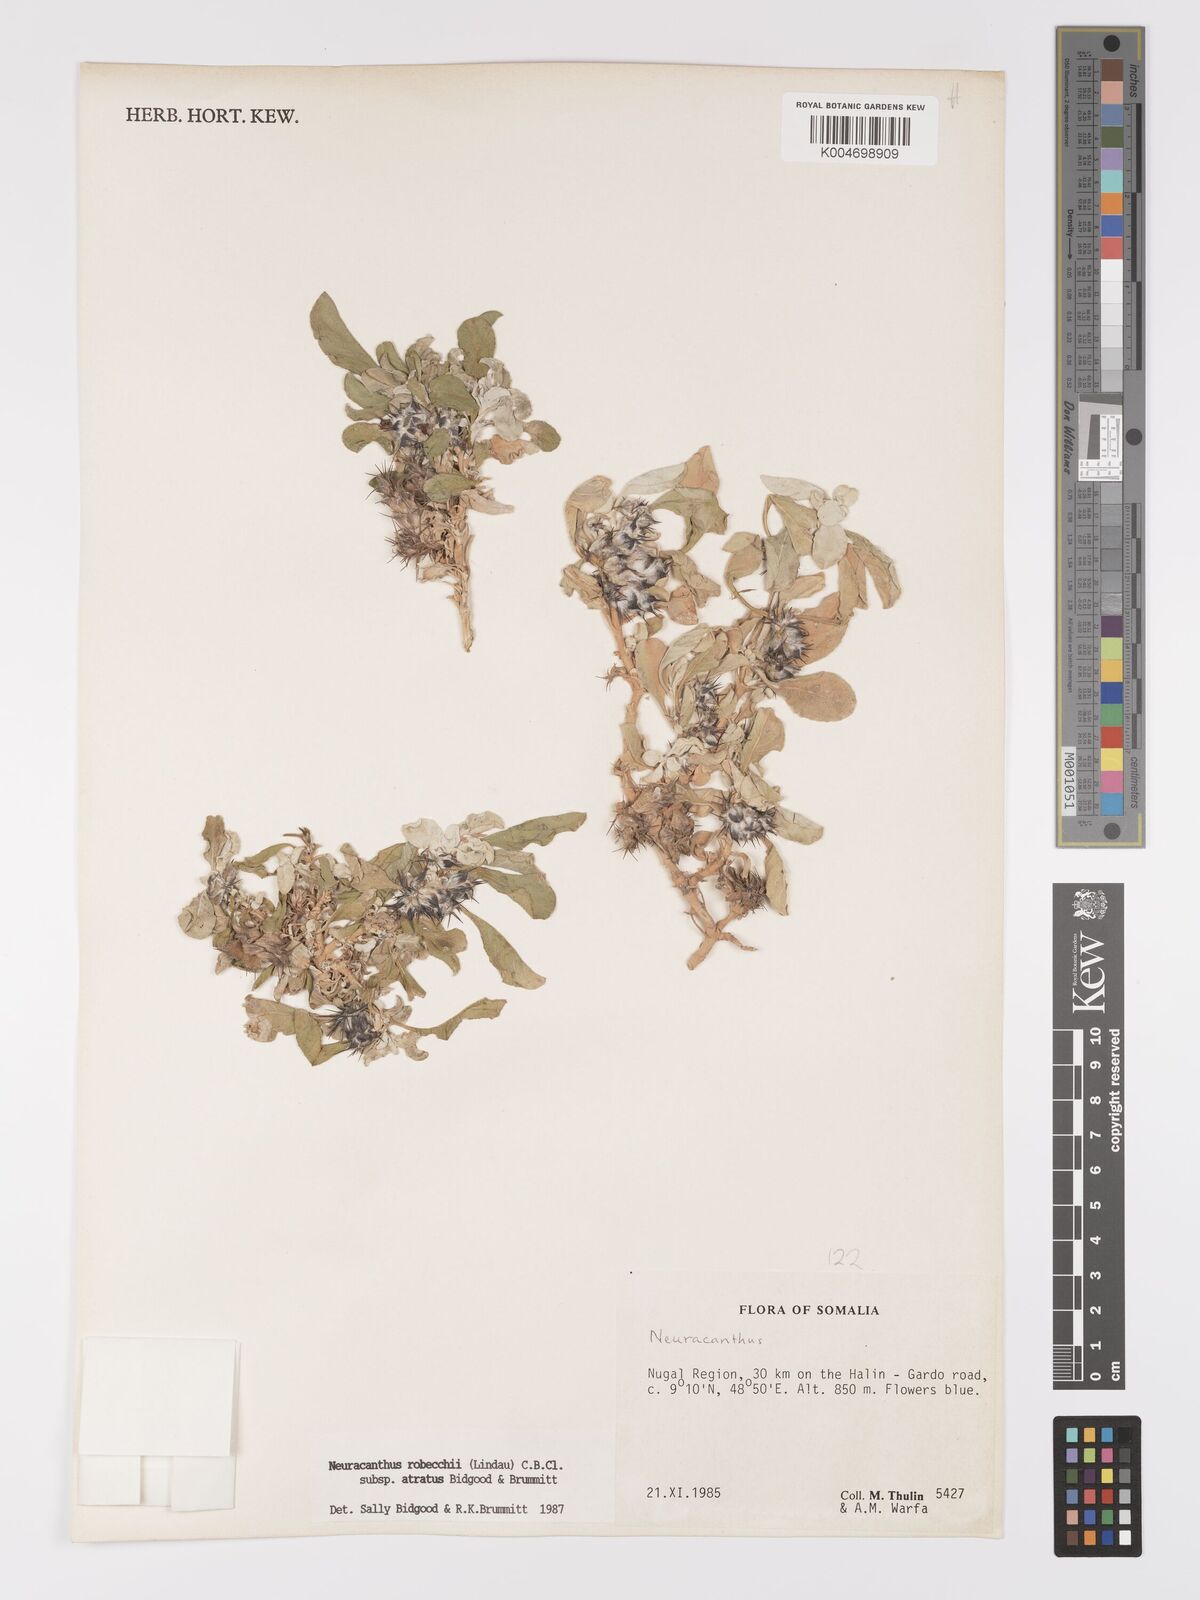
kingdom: Plantae
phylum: Tracheophyta
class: Magnoliopsida
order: Lamiales
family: Acanthaceae
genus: Neuracanthus
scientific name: Neuracanthus robecchii
